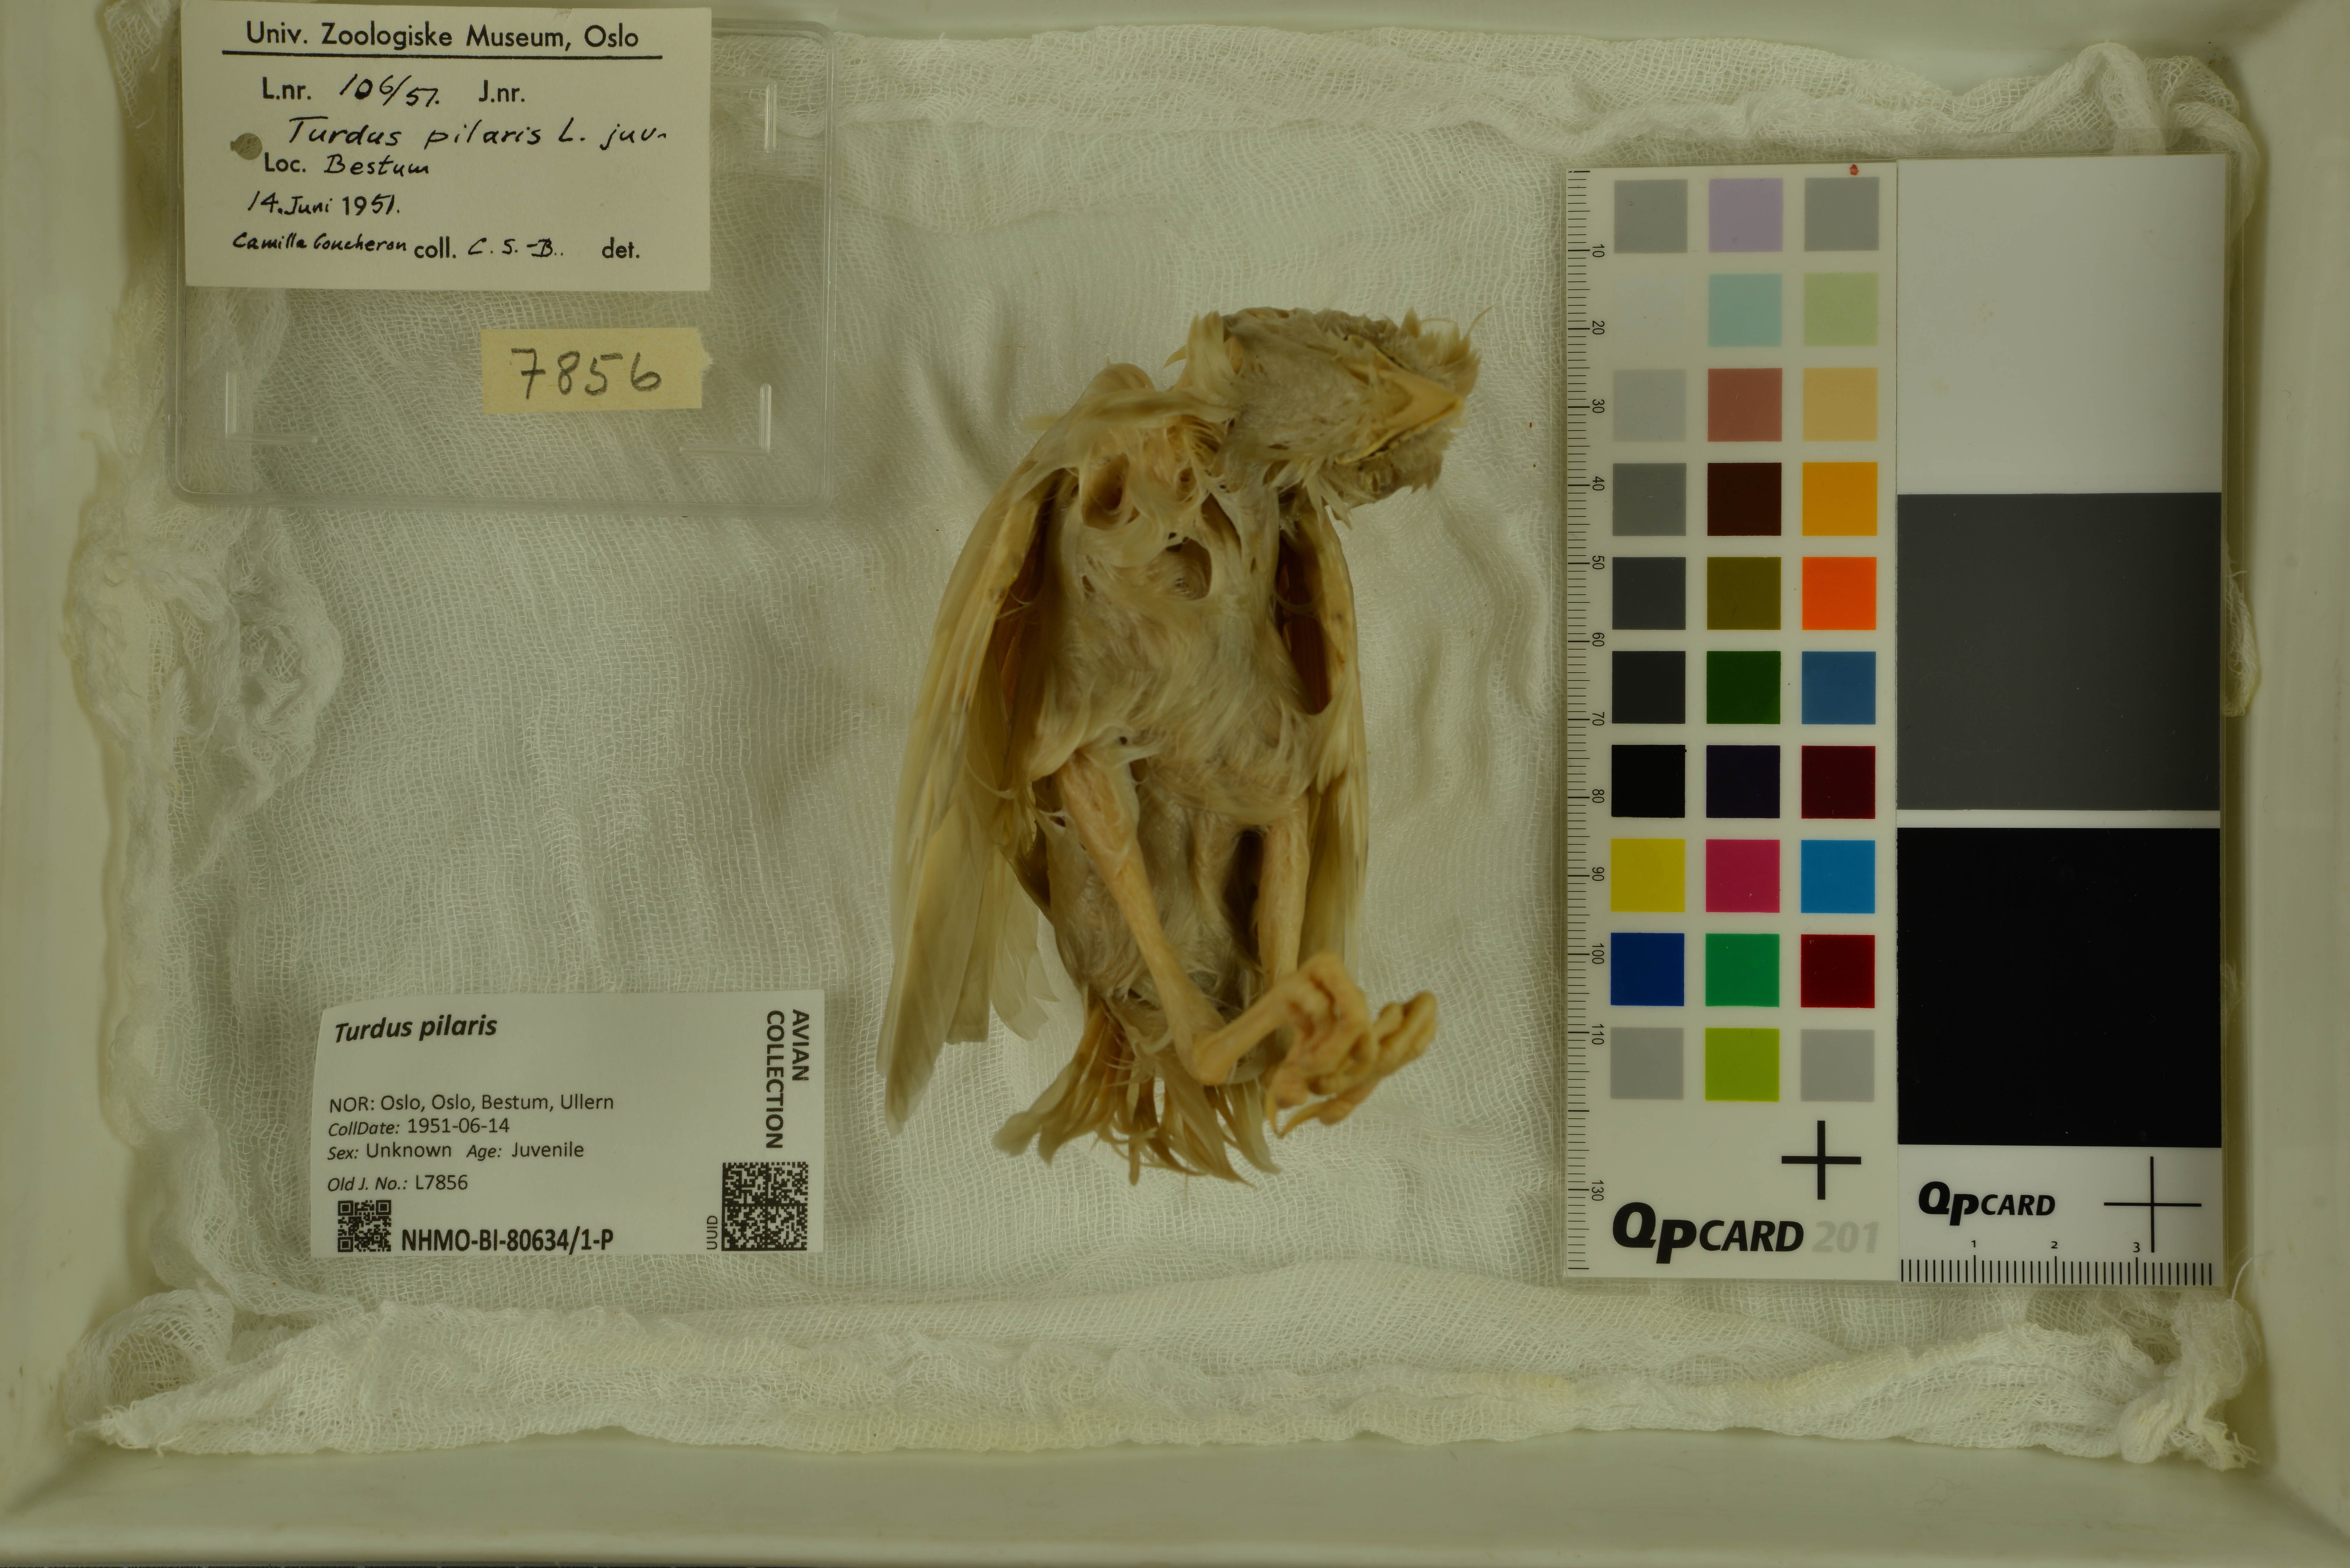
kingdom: Animalia
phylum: Chordata
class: Aves
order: Passeriformes
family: Turdidae
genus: Turdus
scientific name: Turdus pilaris
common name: Fieldfare
